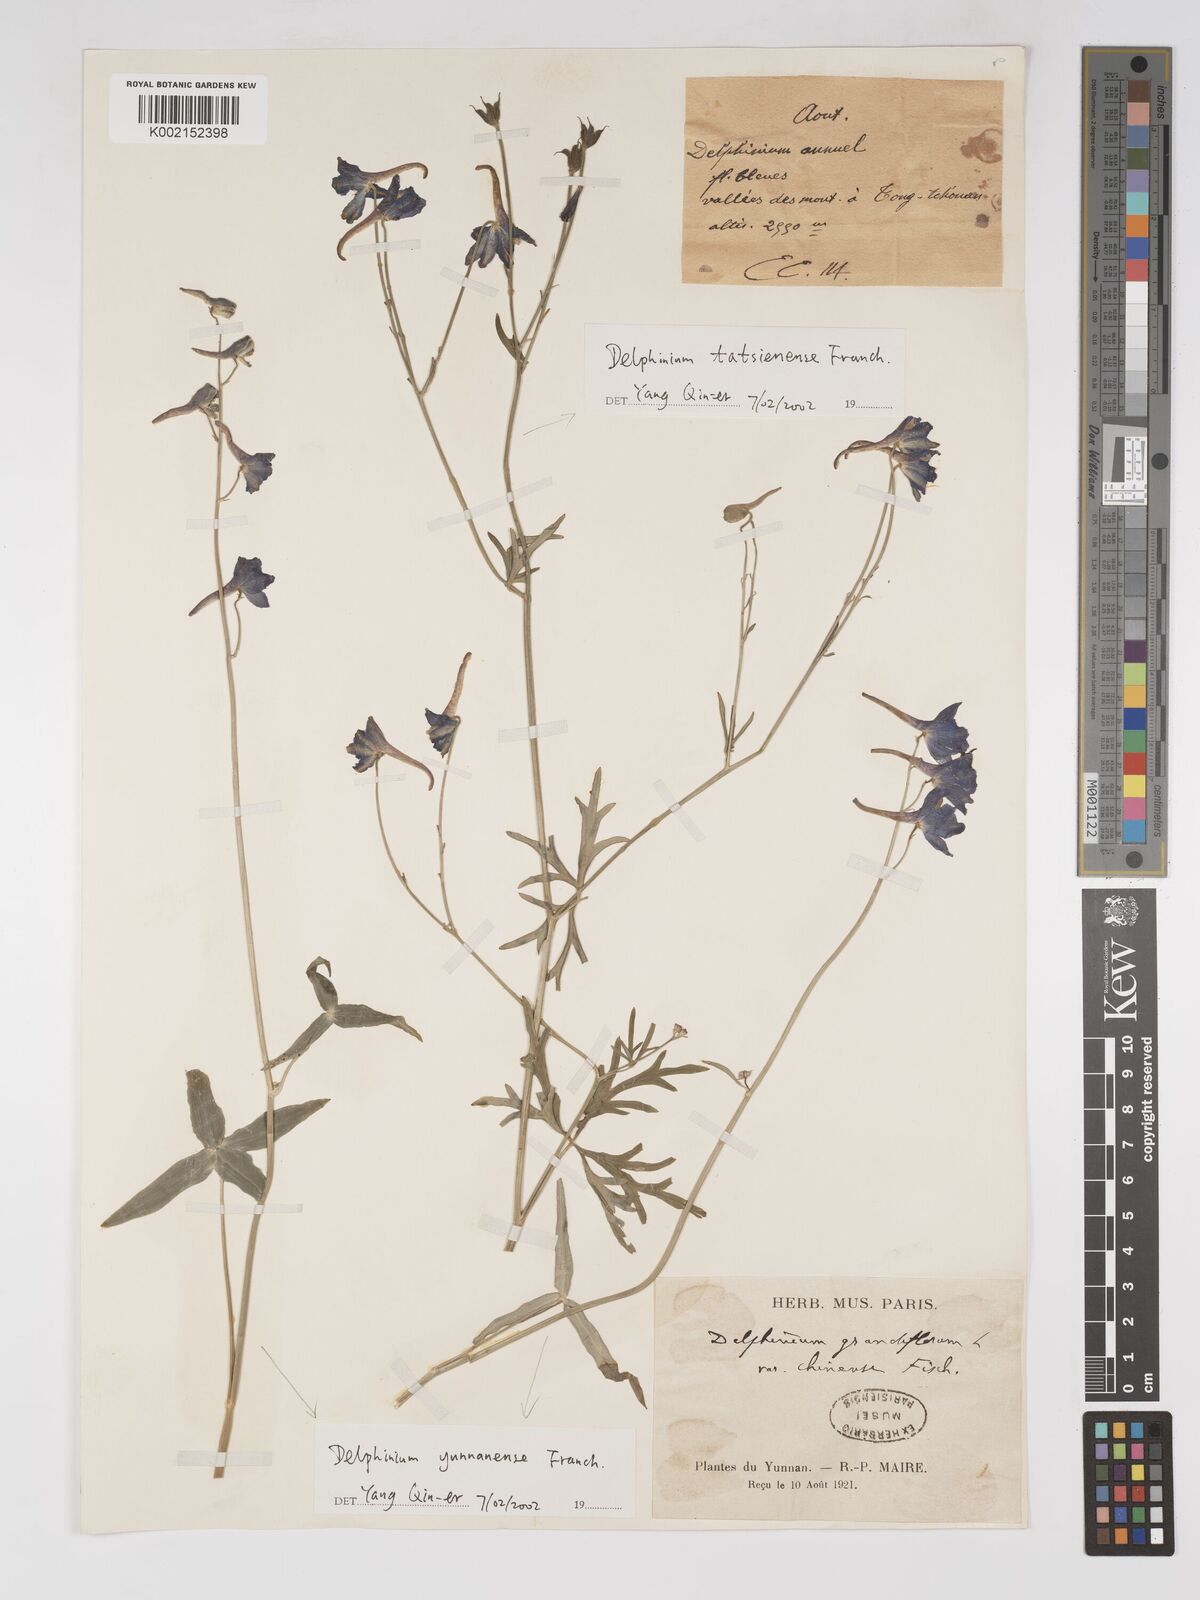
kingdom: Plantae
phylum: Tracheophyta
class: Magnoliopsida
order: Ranunculales
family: Ranunculaceae
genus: Delphinium
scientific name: Delphinium yunnanense
